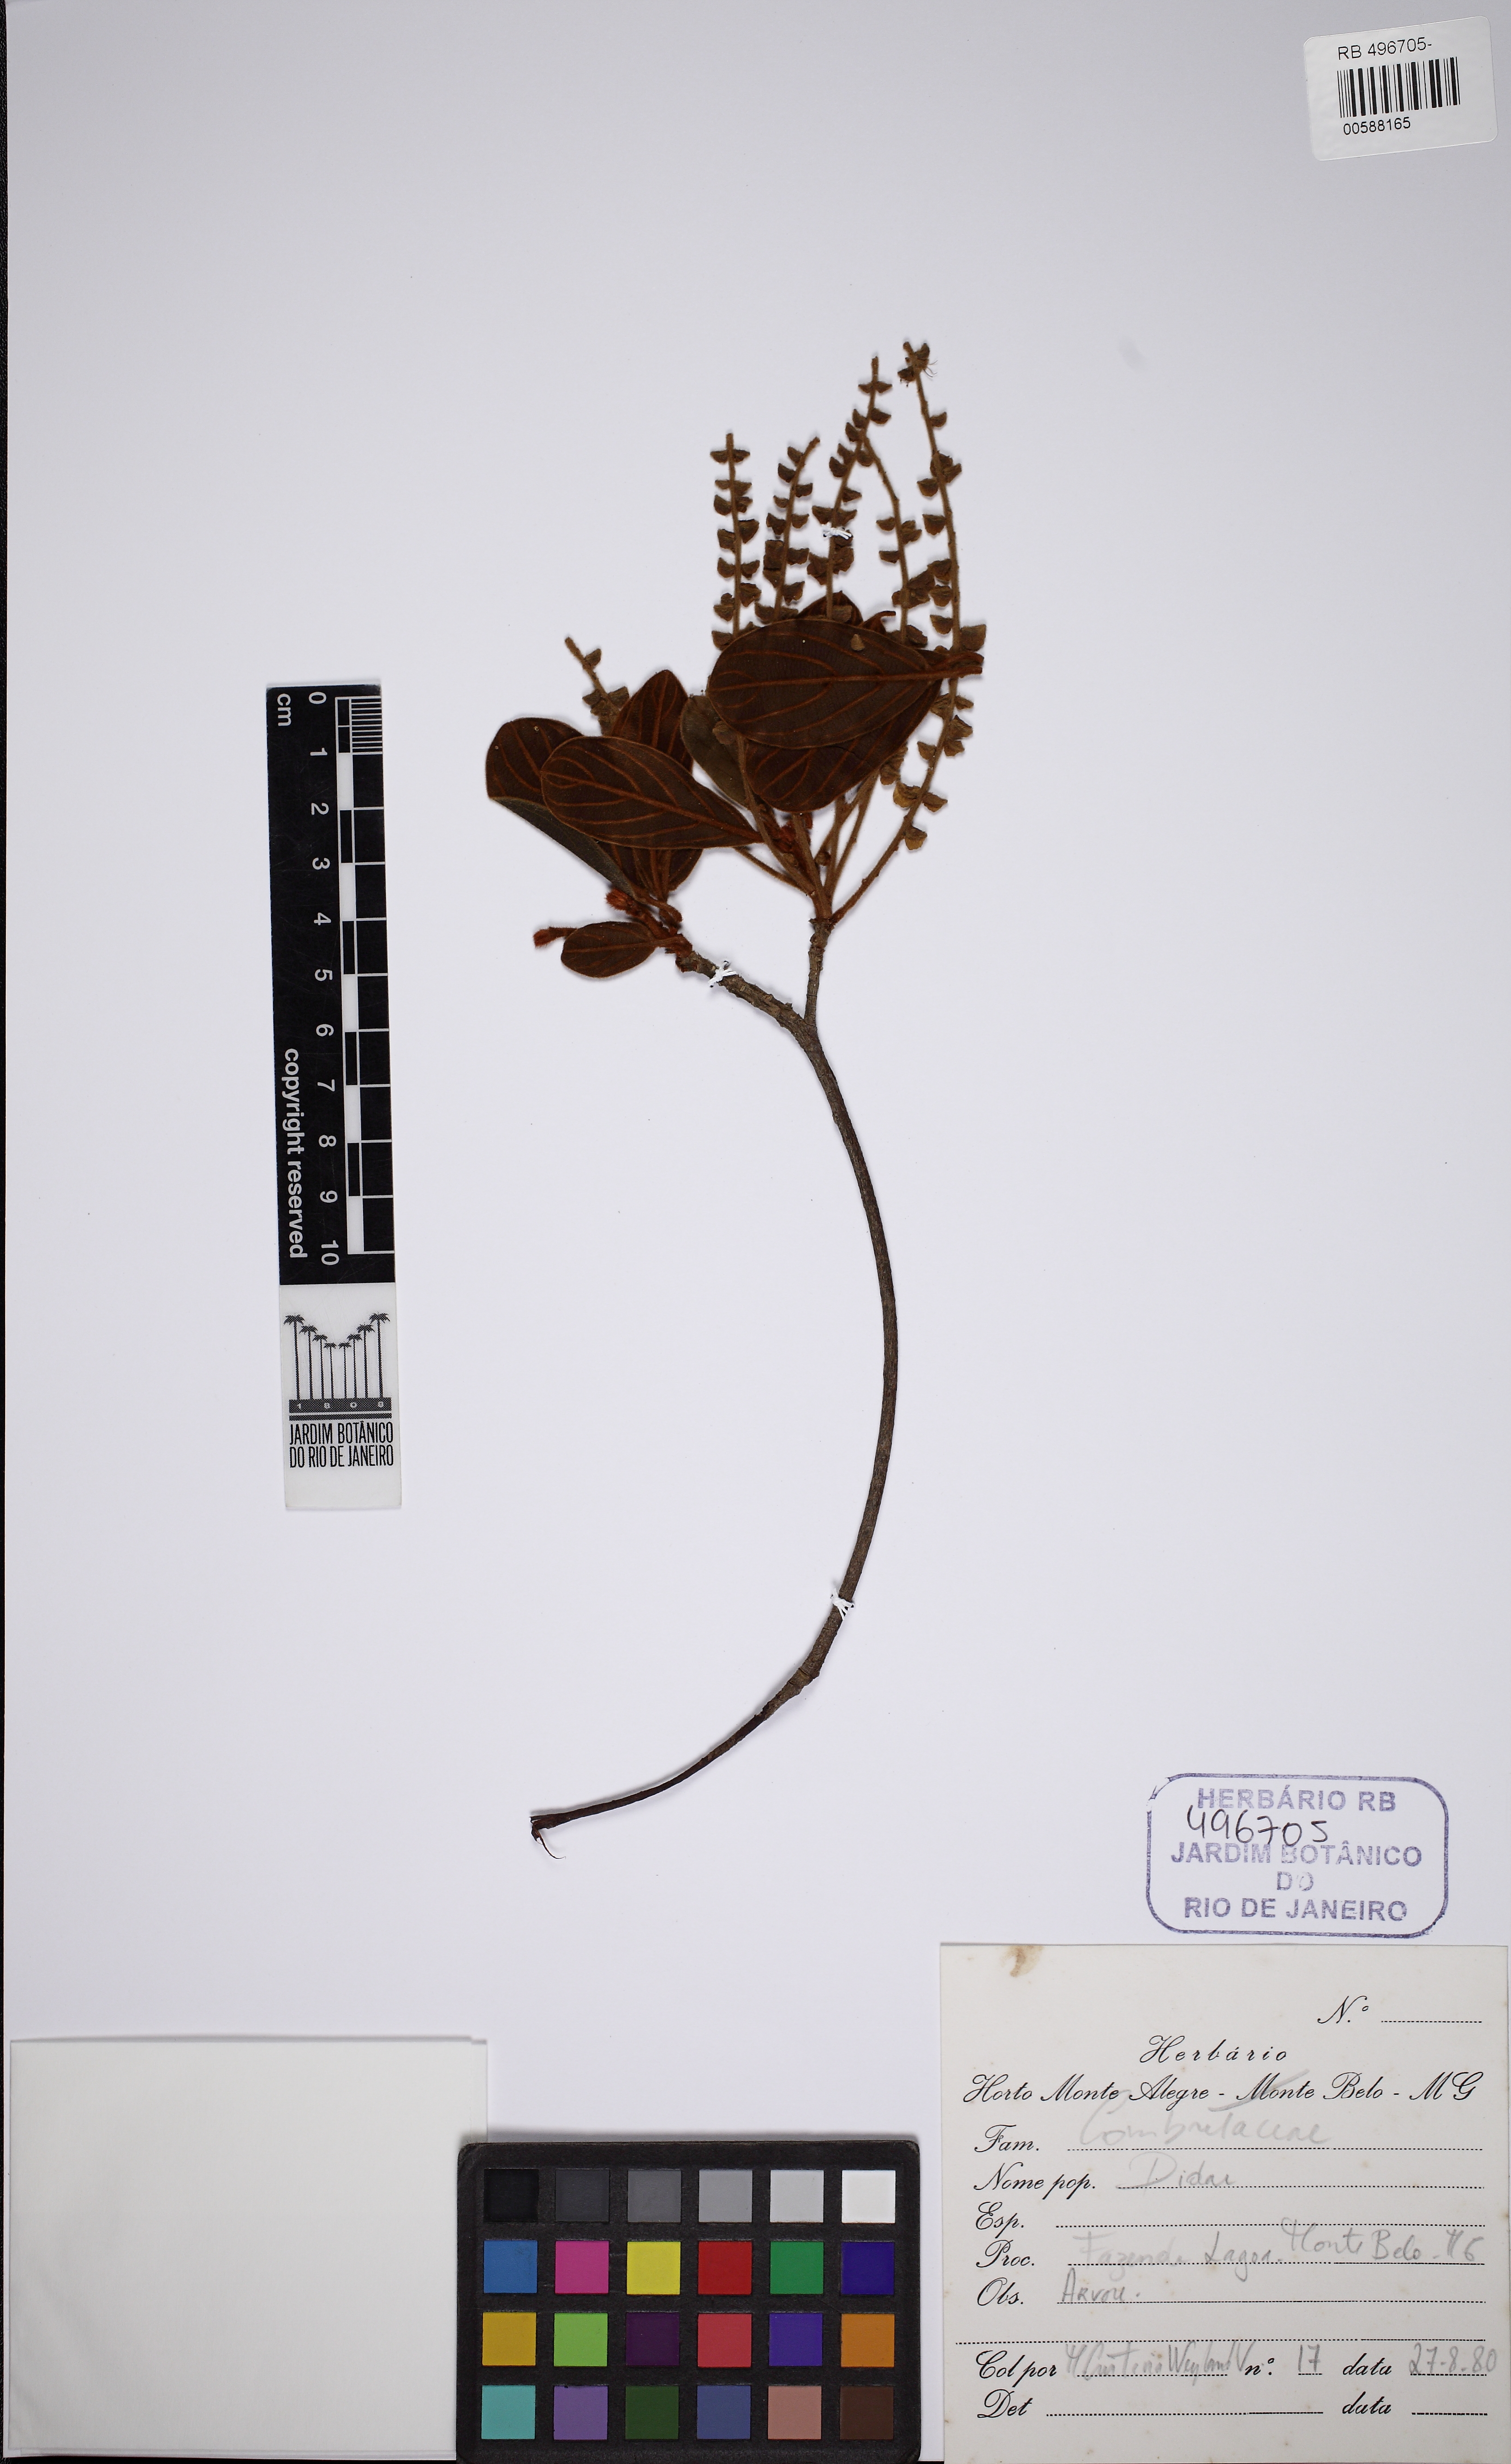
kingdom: Plantae
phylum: Tracheophyta
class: Magnoliopsida
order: Myrtales
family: Combretaceae
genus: Terminalia
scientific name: Terminalia glabrescens
